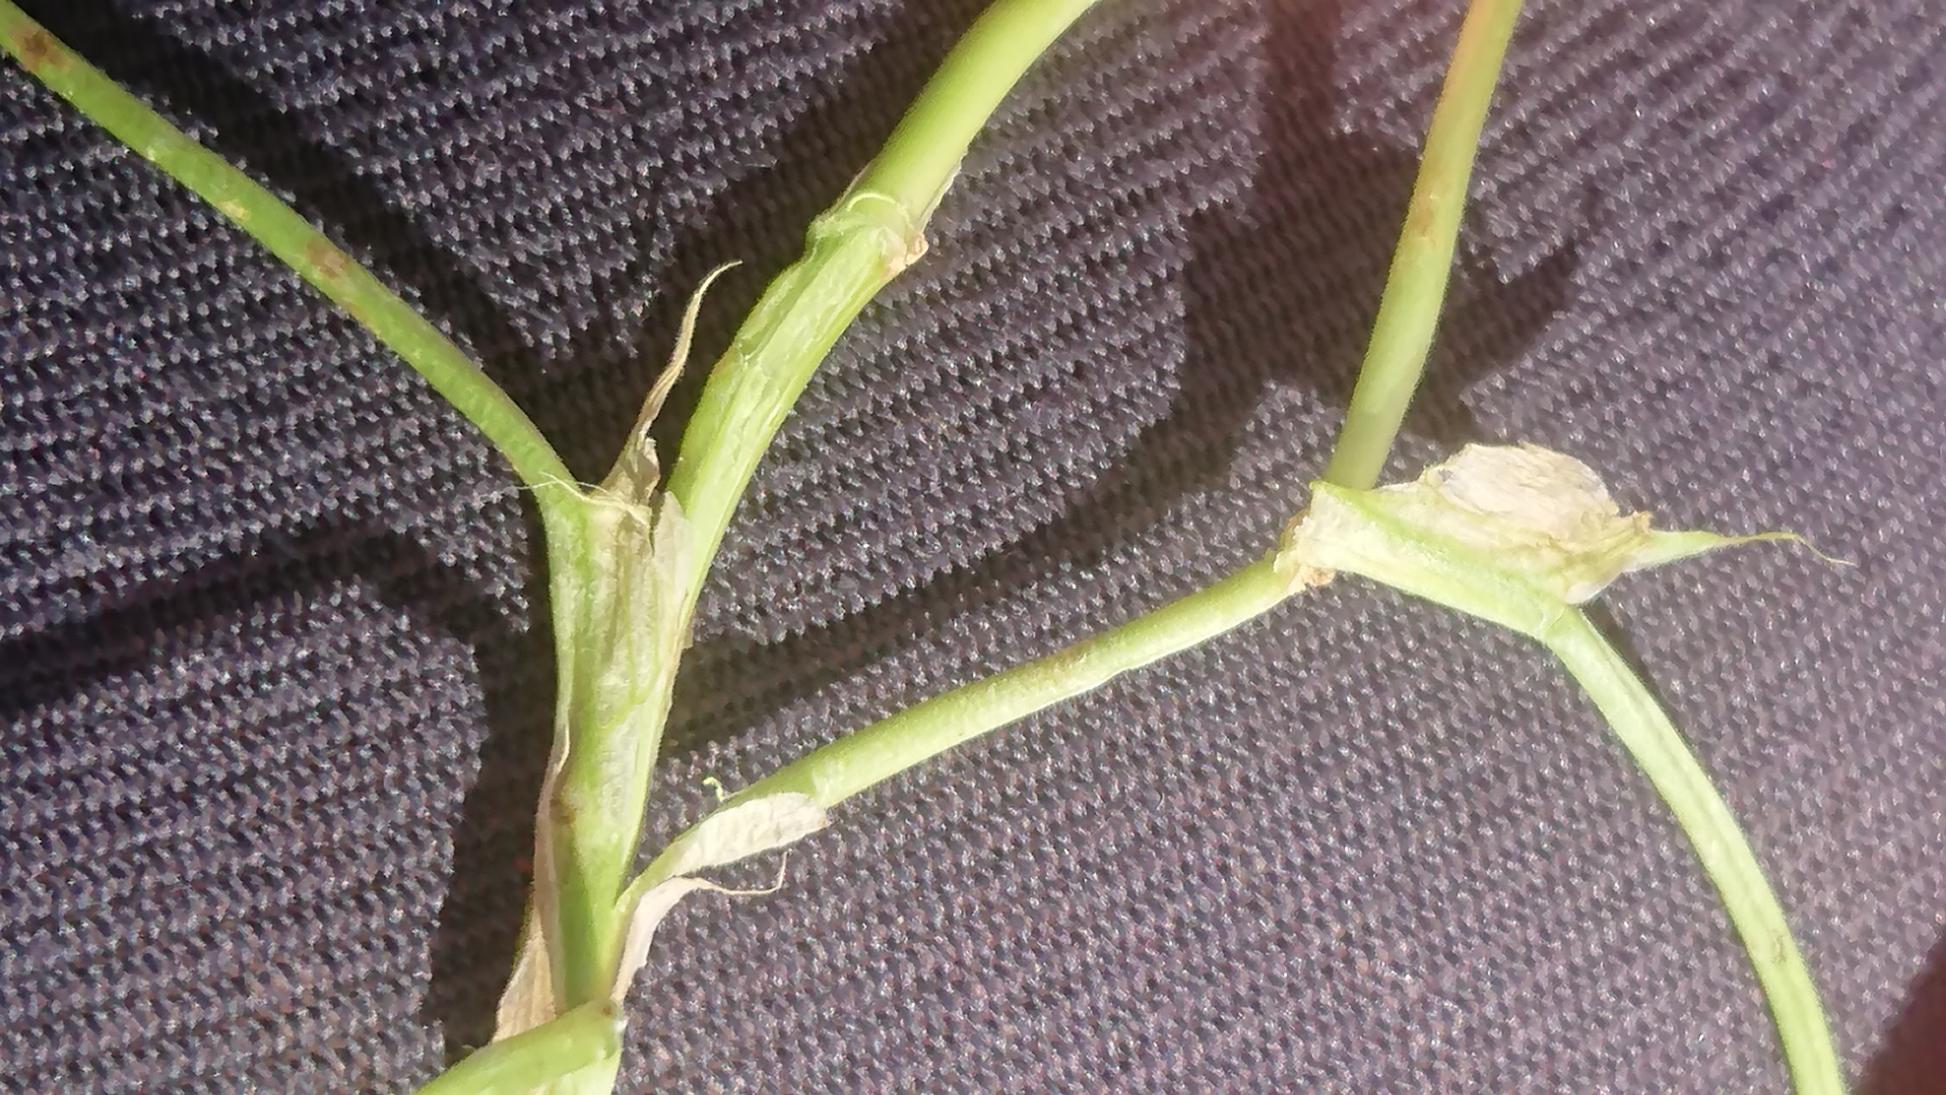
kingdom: Plantae
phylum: Tracheophyta
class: Magnoliopsida
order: Fabales
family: Fabaceae
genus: Trifolium
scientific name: Trifolium fragiferum
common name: Jordbær-kløver
